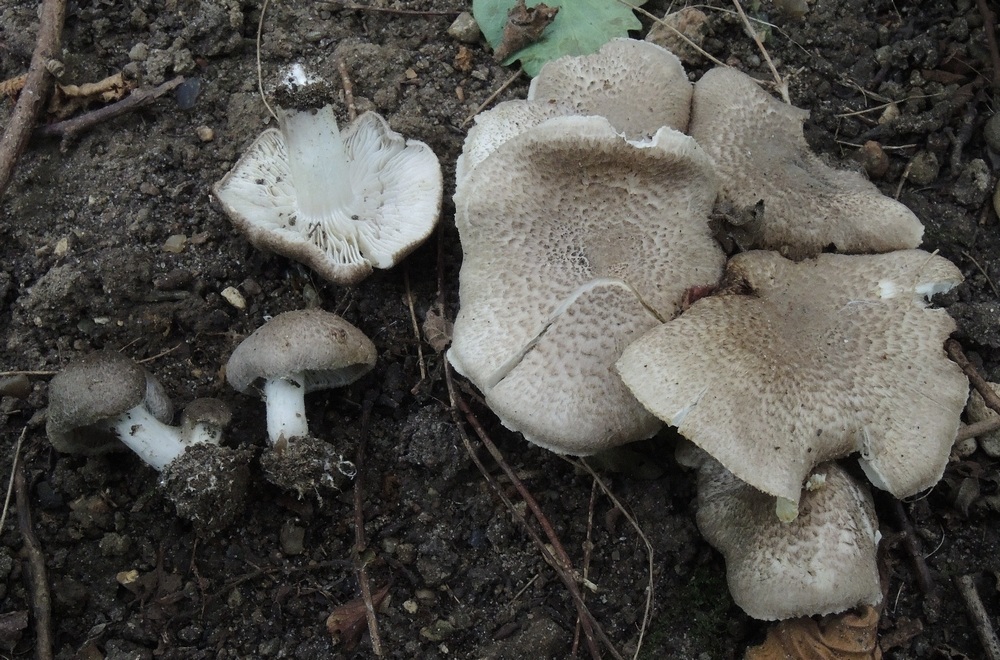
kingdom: Fungi
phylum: Basidiomycota
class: Agaricomycetes
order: Agaricales
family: Tricholomataceae
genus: Tricholoma
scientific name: Tricholoma scalpturatum
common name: gulplettet ridderhat
